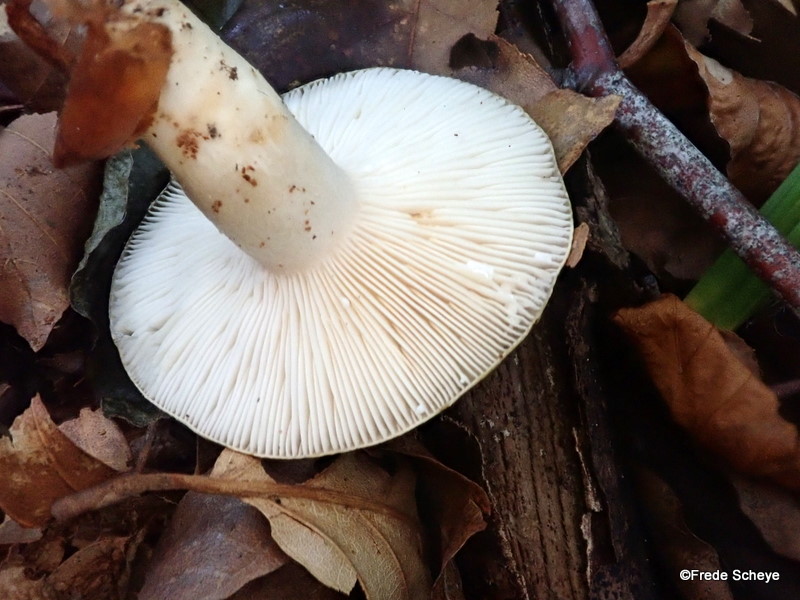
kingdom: Fungi
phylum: Basidiomycota
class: Agaricomycetes
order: Russulales
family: Russulaceae
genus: Lactarius
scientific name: Lactarius blennius
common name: dråbeplettet mælkehat
